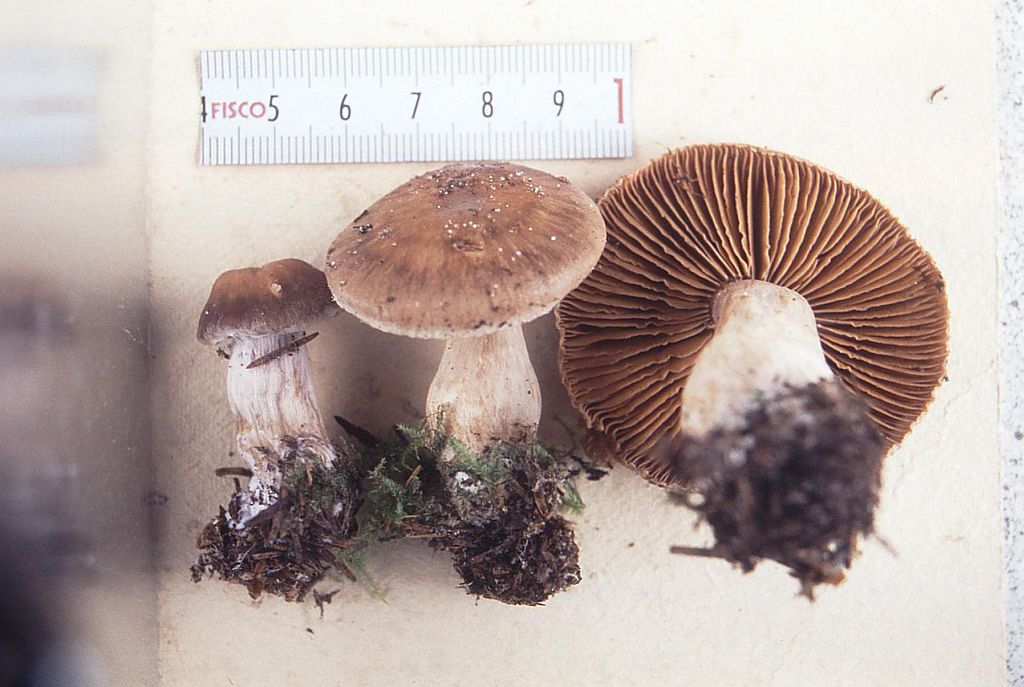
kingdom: Fungi
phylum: Basidiomycota
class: Agaricomycetes
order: Agaricales
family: Cortinariaceae
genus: Cortinarius
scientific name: Cortinarius kauffmanianus
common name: plantage-slørhat
